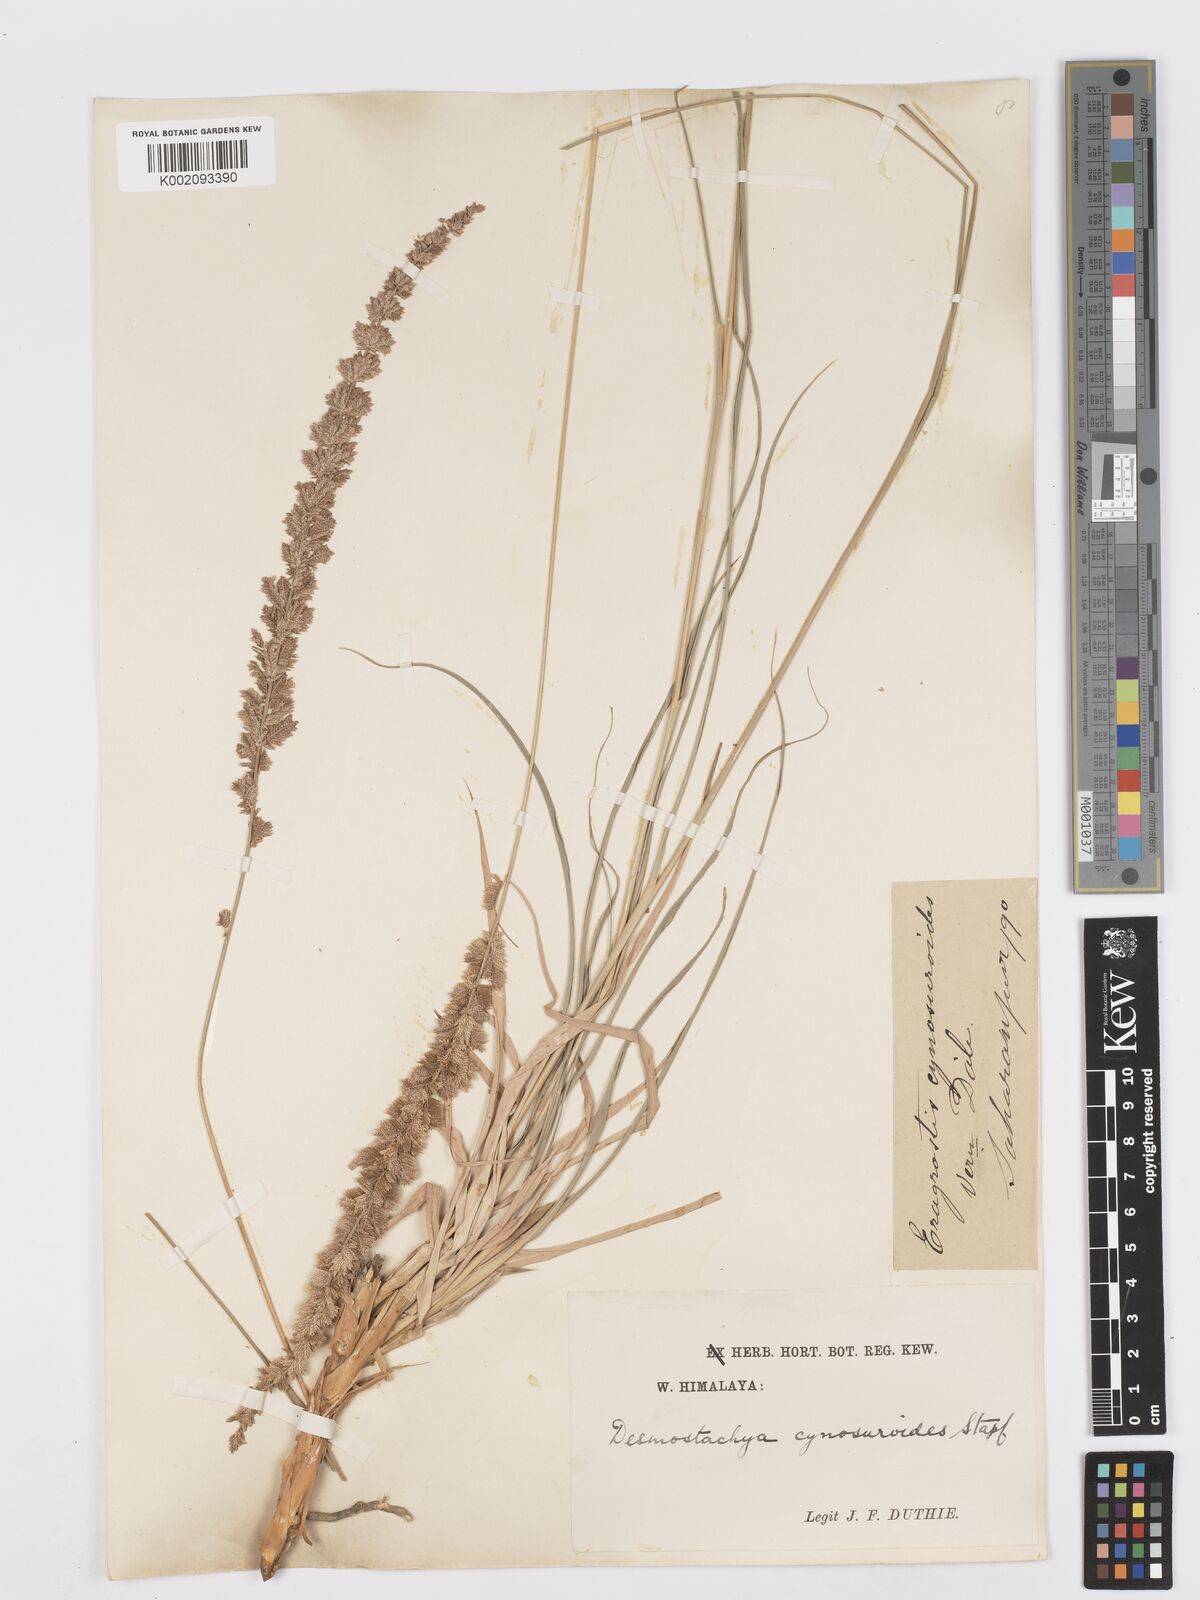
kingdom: Plantae
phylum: Tracheophyta
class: Liliopsida
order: Poales
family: Poaceae
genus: Desmostachya
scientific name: Desmostachya bipinnata
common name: Crowfoot grass
